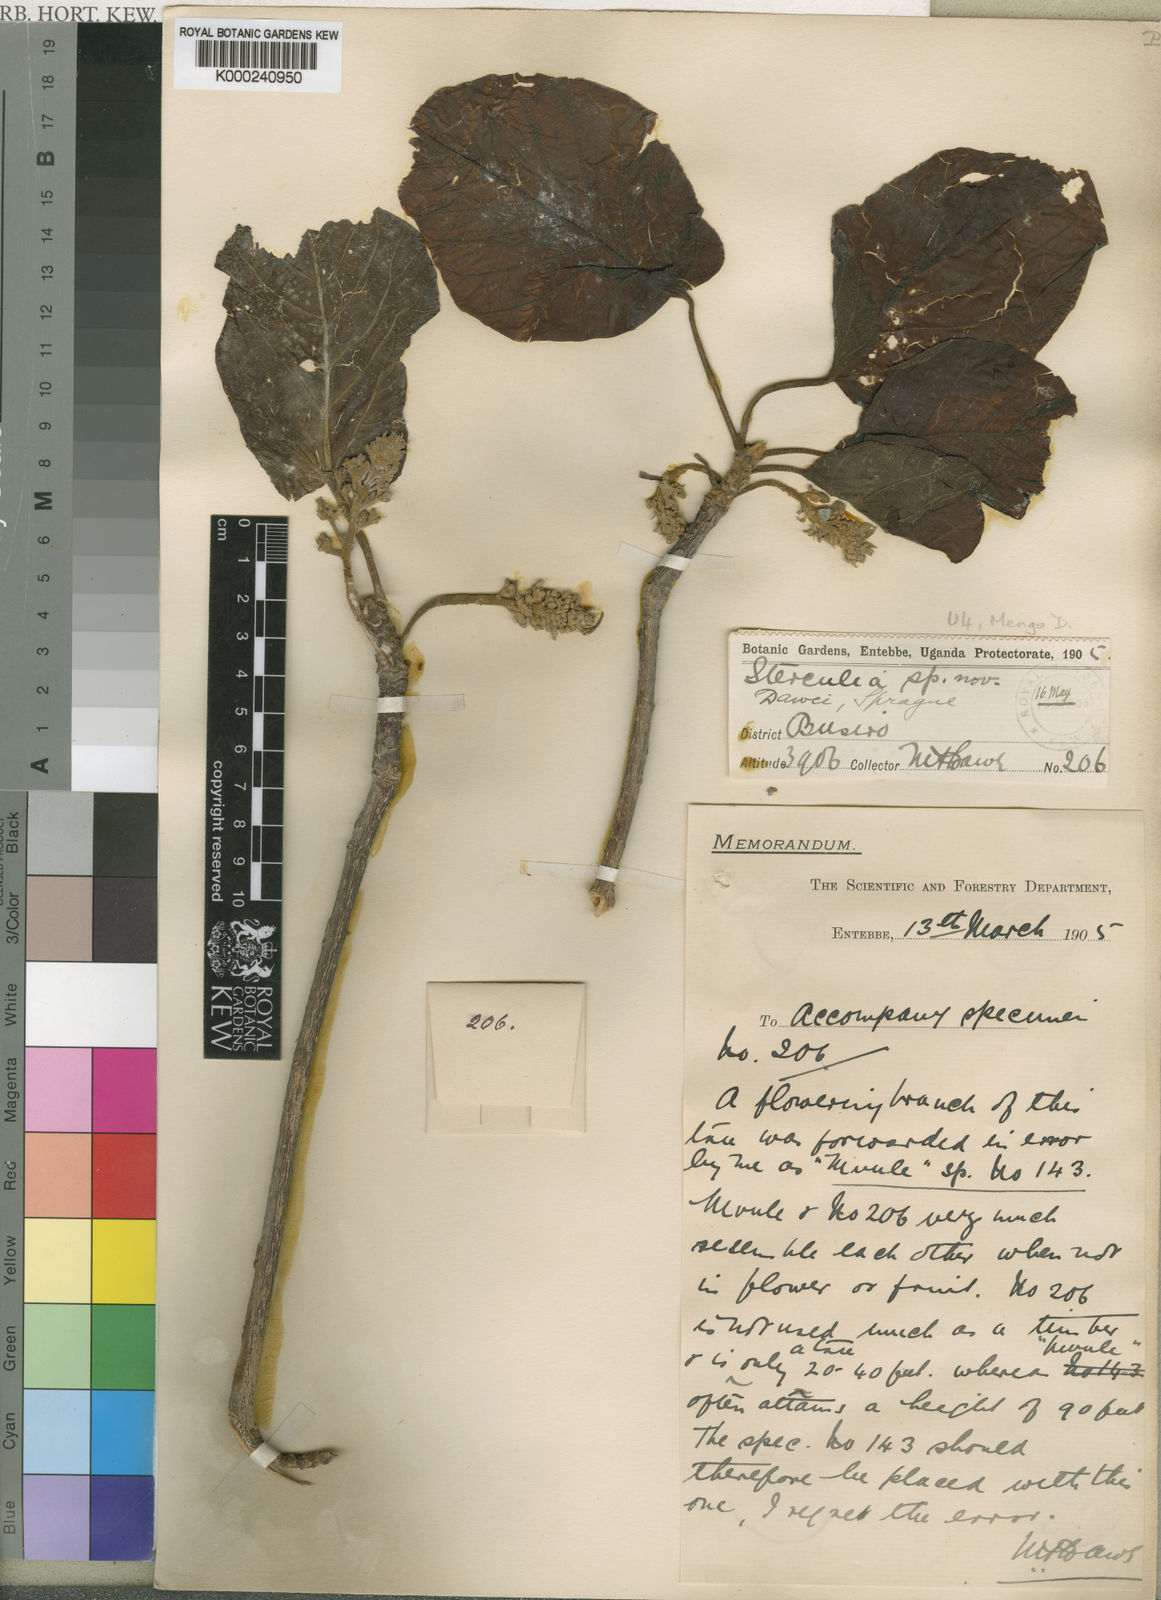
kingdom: Plantae
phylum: Tracheophyta
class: Magnoliopsida
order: Malvales
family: Malvaceae
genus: Sterculia
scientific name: Sterculia dawei
